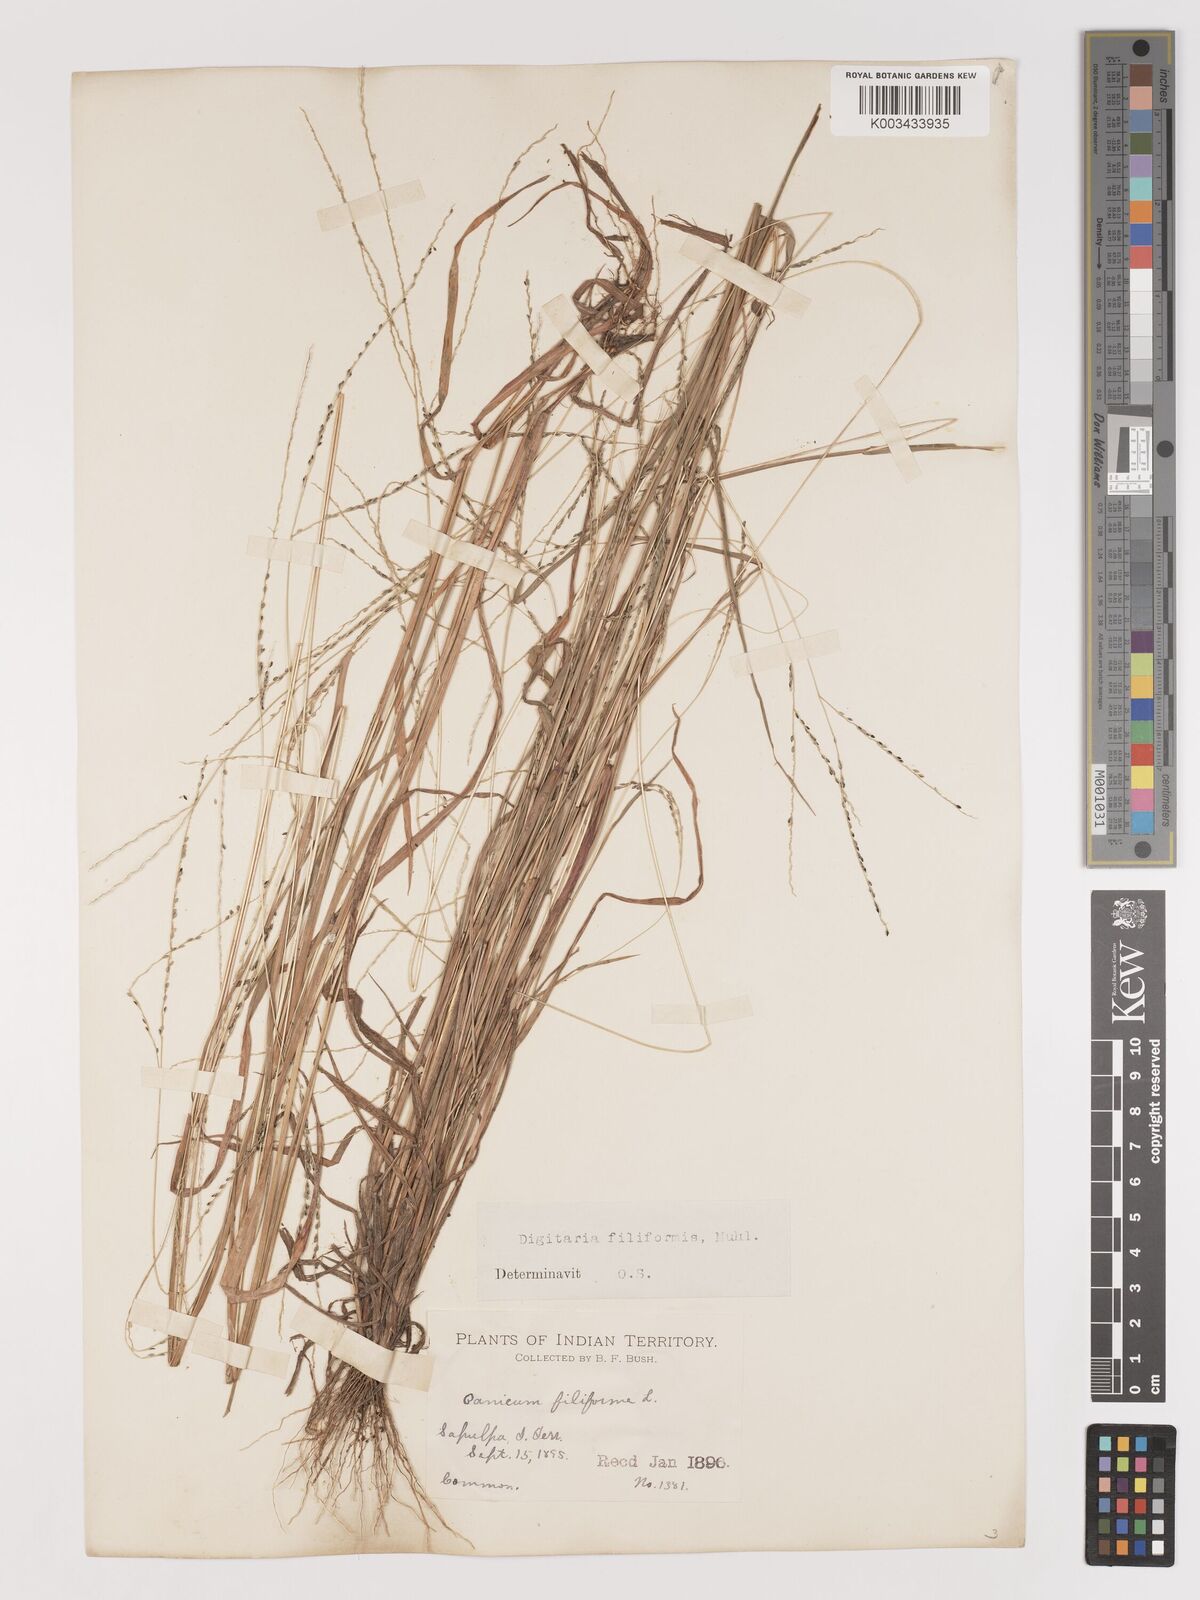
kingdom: Plantae
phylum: Tracheophyta
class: Liliopsida
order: Poales
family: Poaceae
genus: Digitaria
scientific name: Digitaria filiformis
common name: Slender crabgrass
